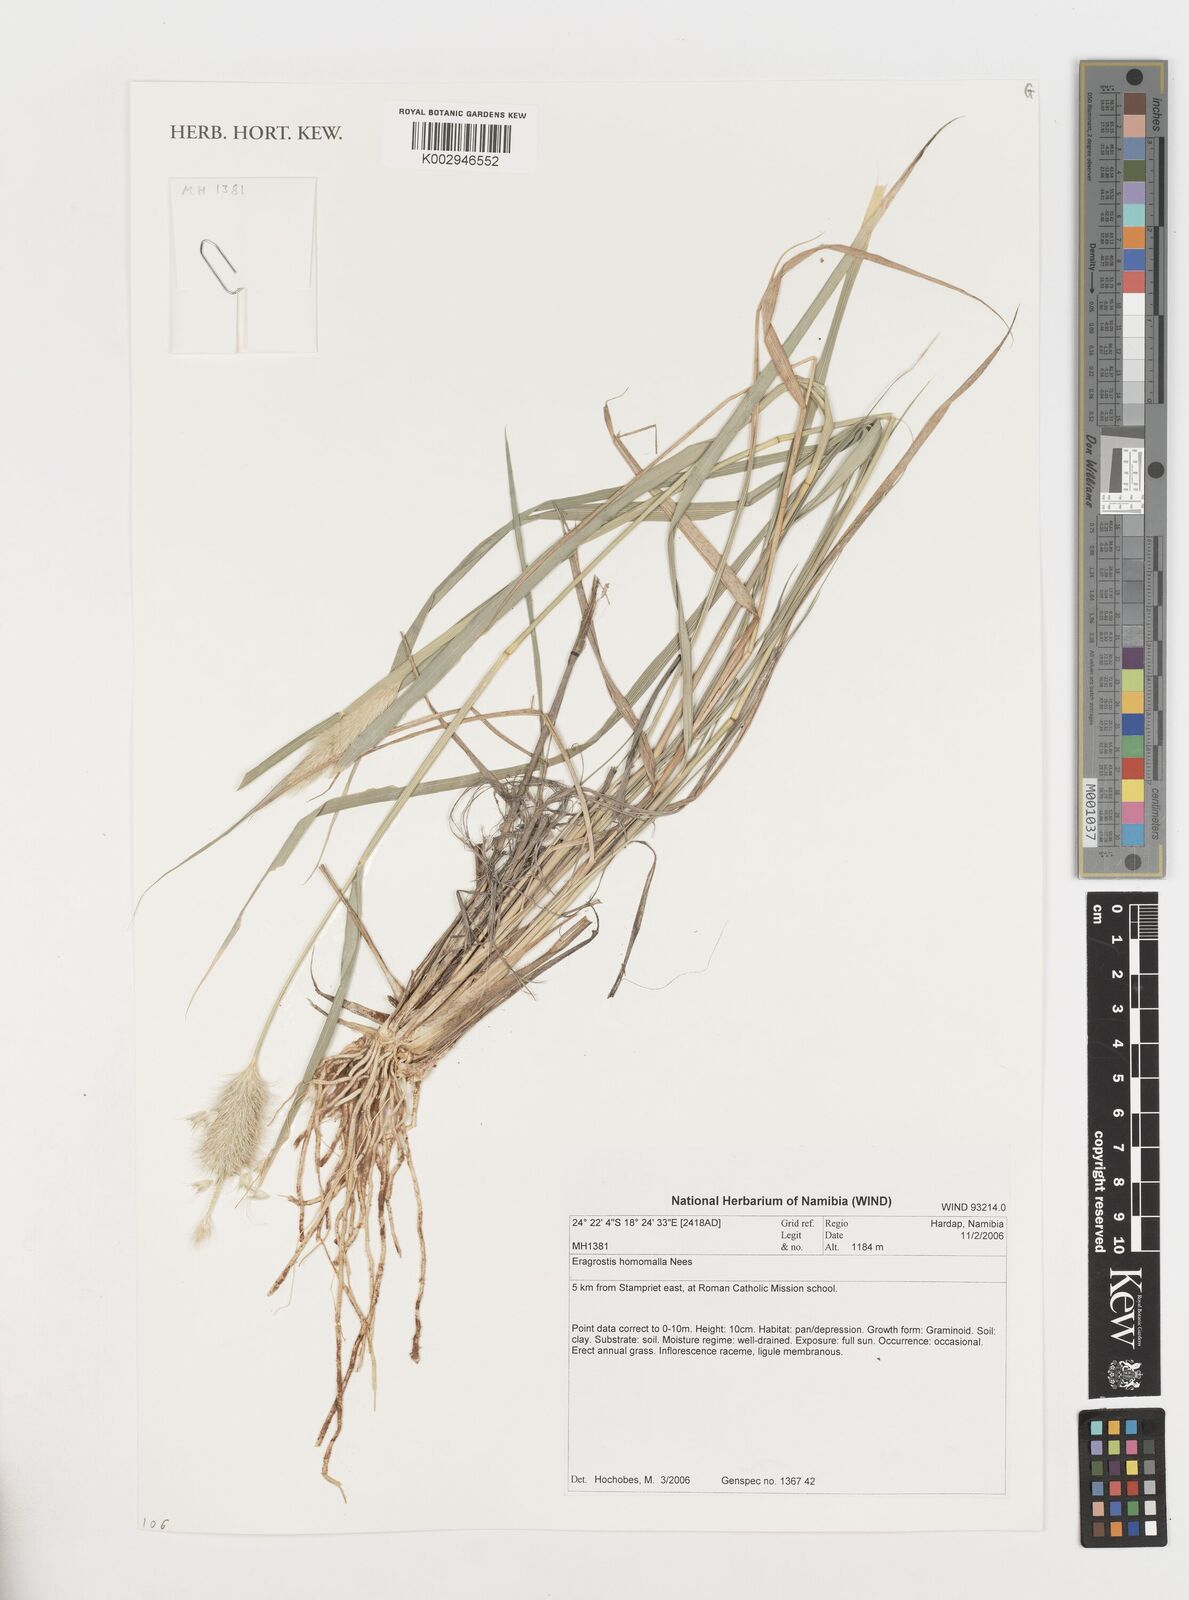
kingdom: Plantae
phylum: Tracheophyta
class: Liliopsida
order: Poales
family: Poaceae
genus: Eragrostis
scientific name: Eragrostis homomalla
